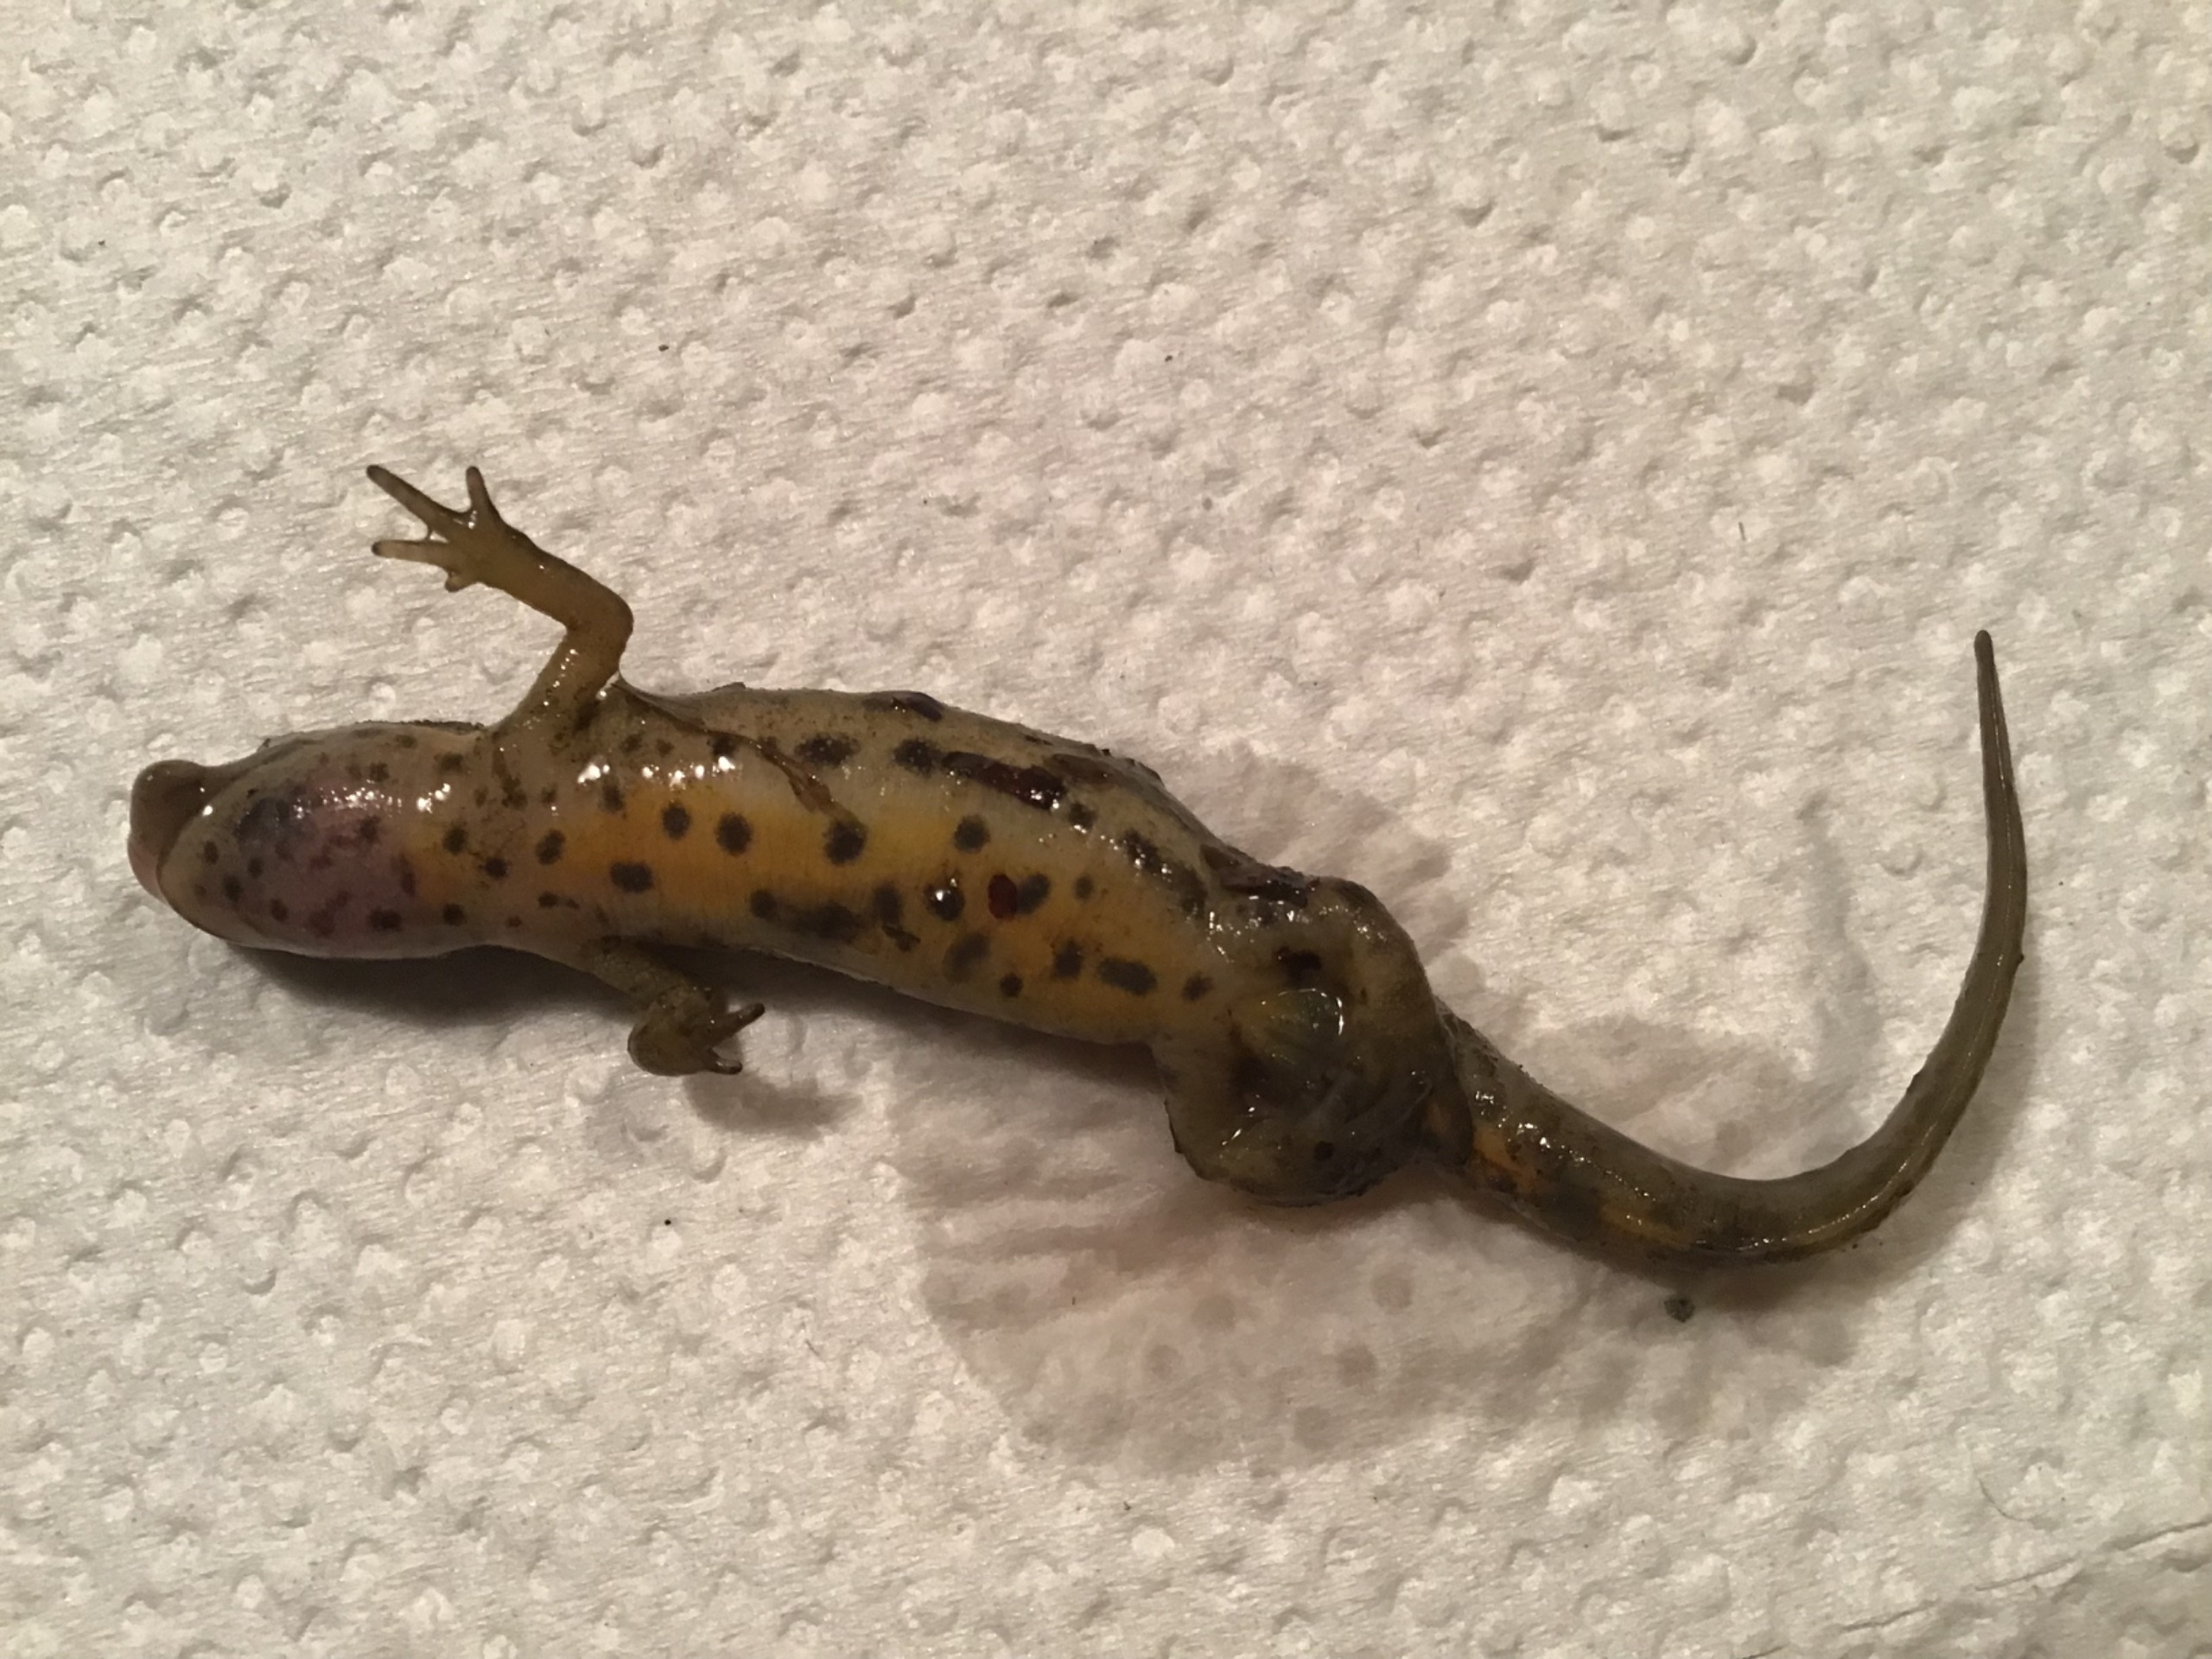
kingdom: Animalia
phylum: Chordata
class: Amphibia
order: Caudata
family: Salamandridae
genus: Lissotriton
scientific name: Lissotriton vulgaris
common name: Lille vandsalamander
